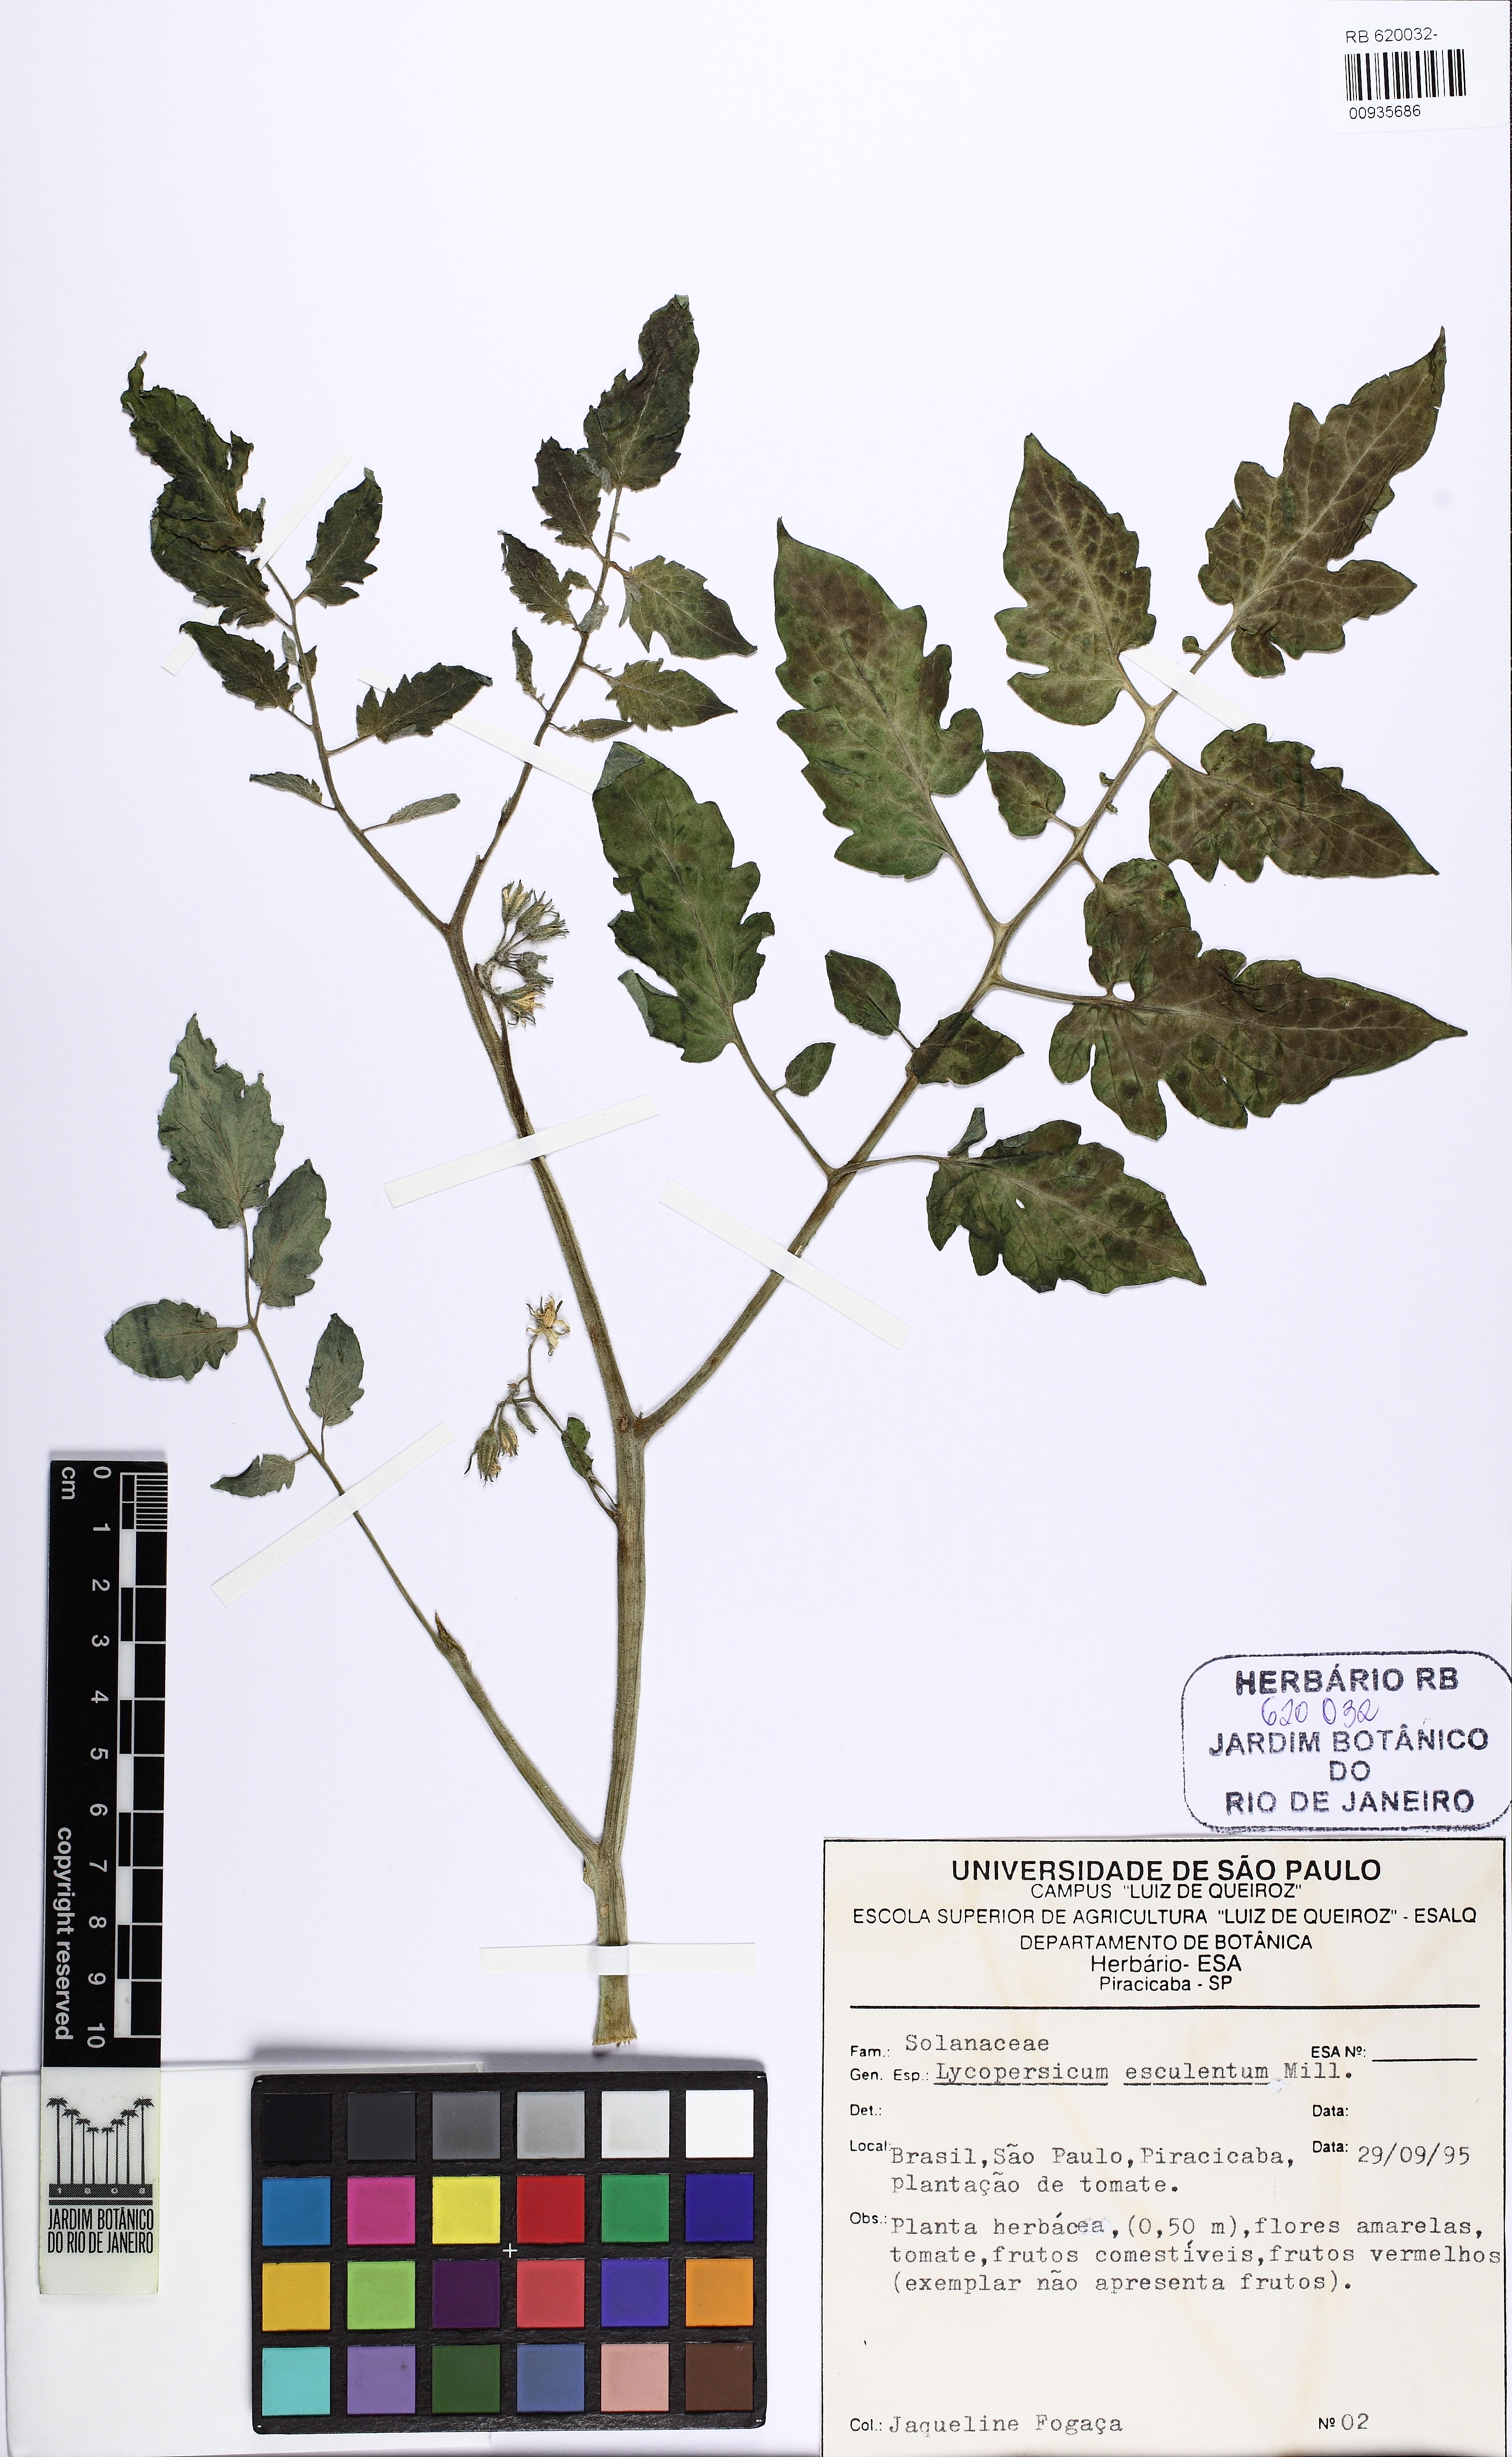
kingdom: Plantae
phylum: Tracheophyta
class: Magnoliopsida
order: Solanales
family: Solanaceae
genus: Solanum
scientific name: Solanum
